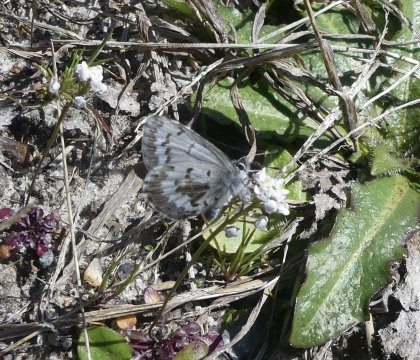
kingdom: Animalia
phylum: Arthropoda
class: Insecta
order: Lepidoptera
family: Lycaenidae
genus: Celastrina
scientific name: Celastrina ladon
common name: Spring Azure
